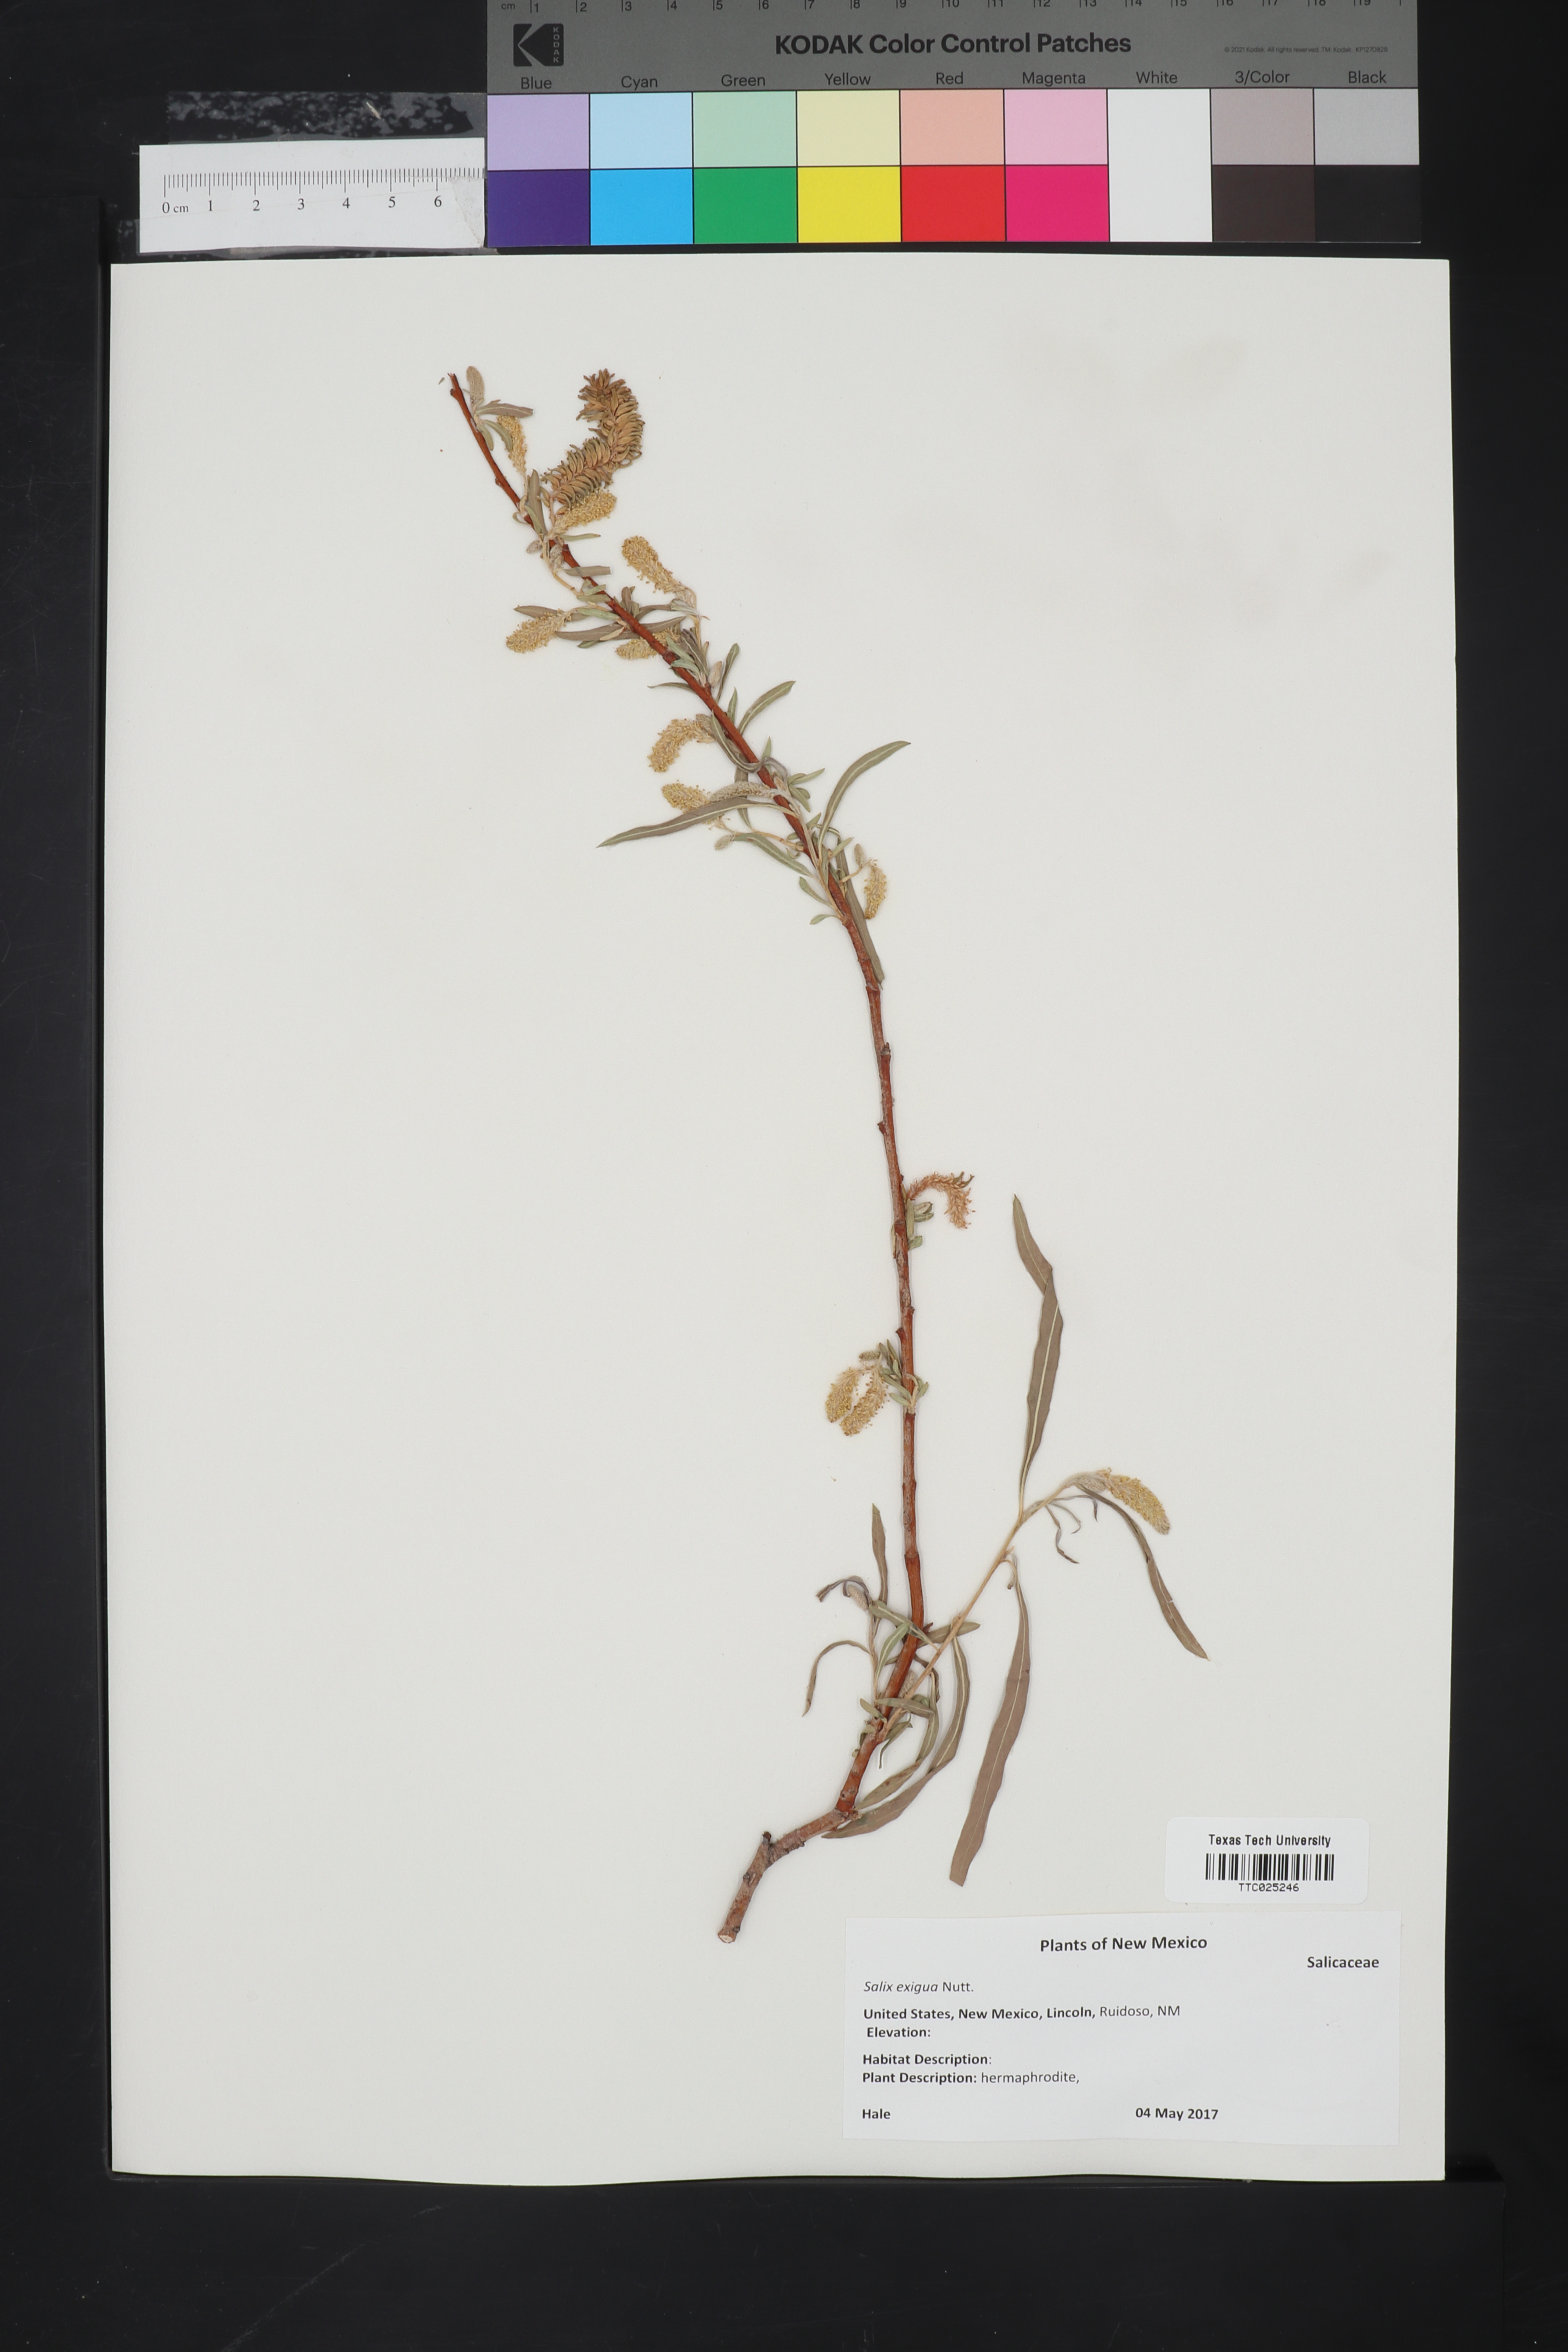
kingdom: Plantae
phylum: Tracheophyta
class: Magnoliopsida
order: Malpighiales
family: Salicaceae
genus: Salix
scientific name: Salix exigua
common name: Coyote willow
